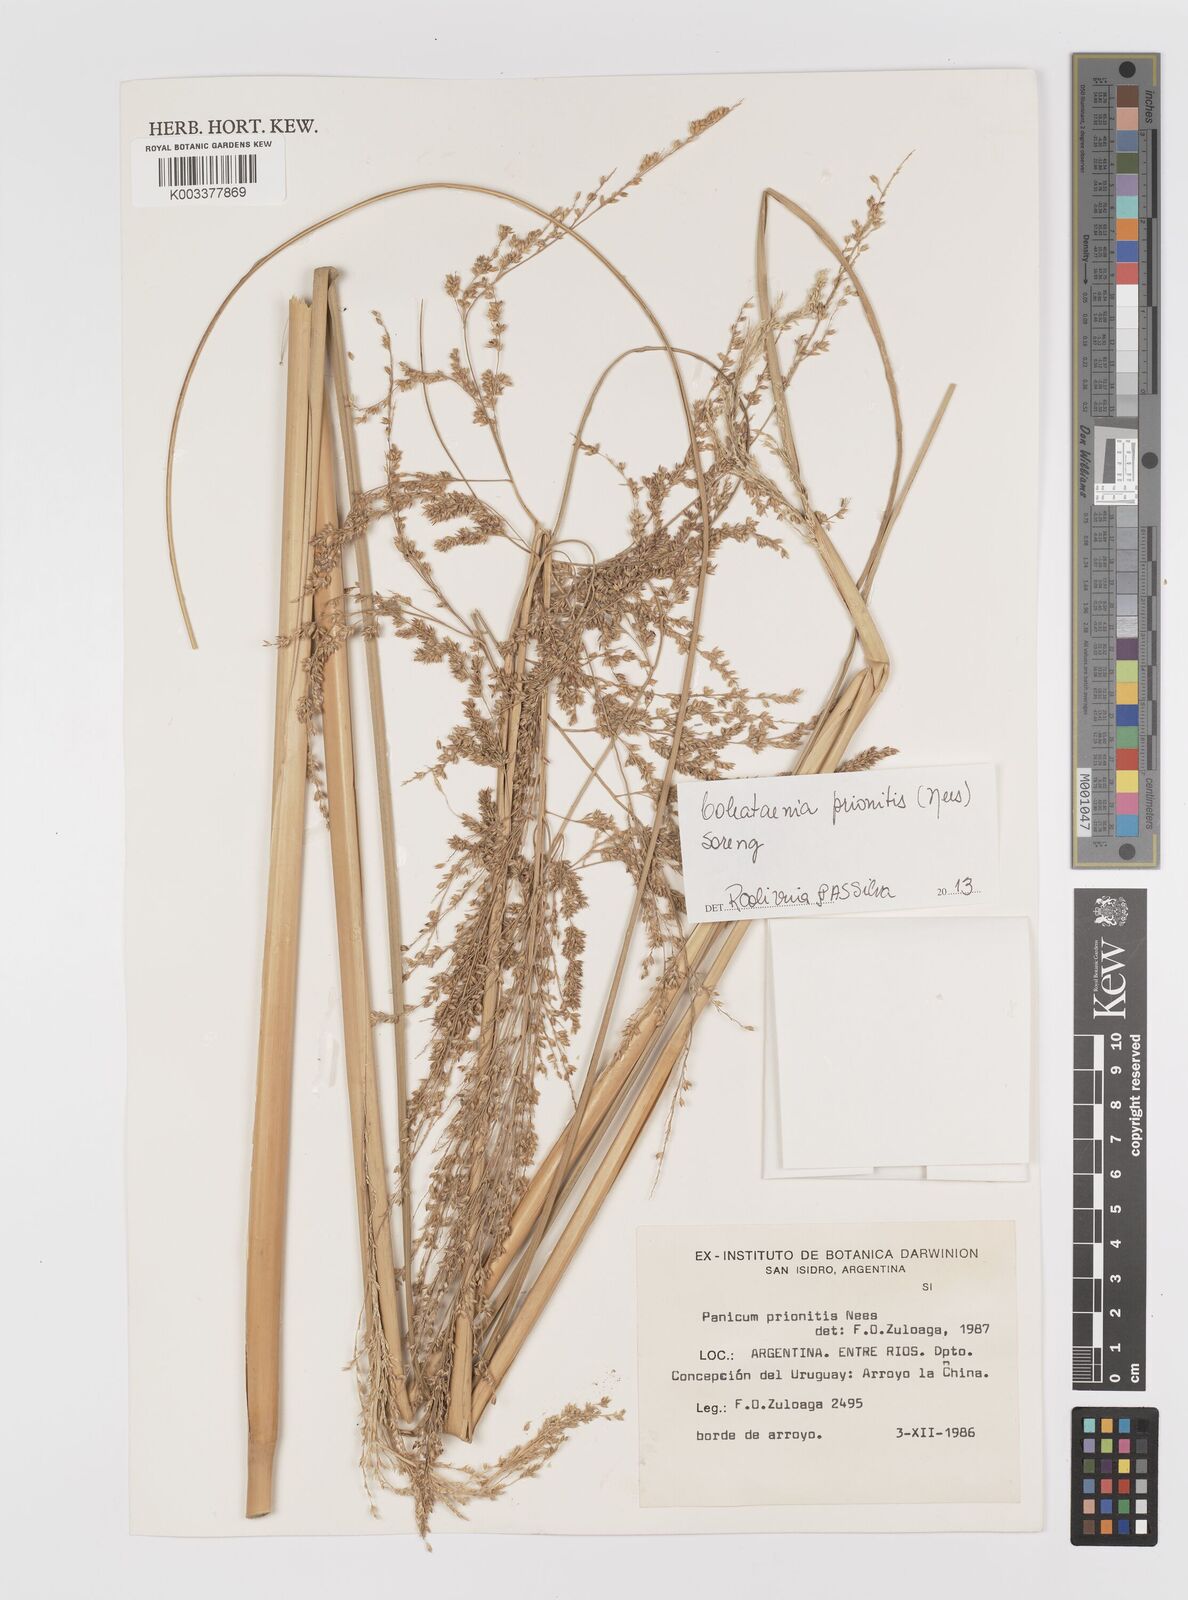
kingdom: Plantae
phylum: Tracheophyta
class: Liliopsida
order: Poales
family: Poaceae
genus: Coleataenia
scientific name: Coleataenia prionitis
